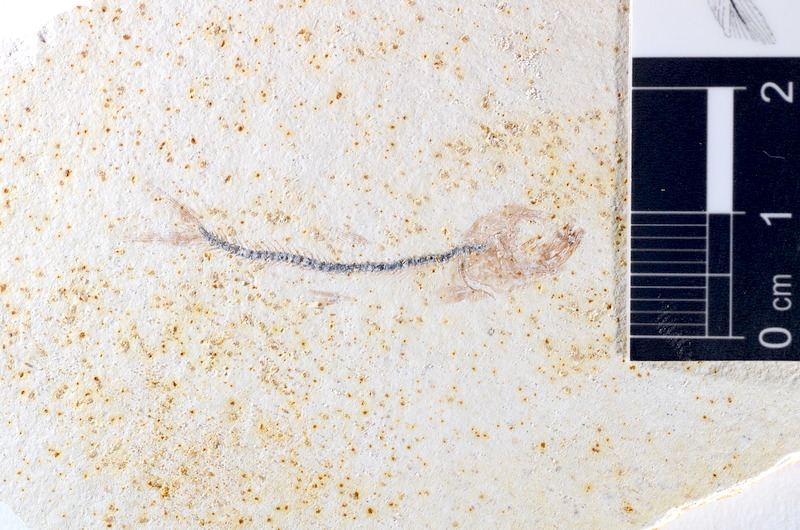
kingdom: Animalia
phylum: Chordata
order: Salmoniformes
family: Orthogonikleithridae
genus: Orthogonikleithrus
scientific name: Orthogonikleithrus hoelli
